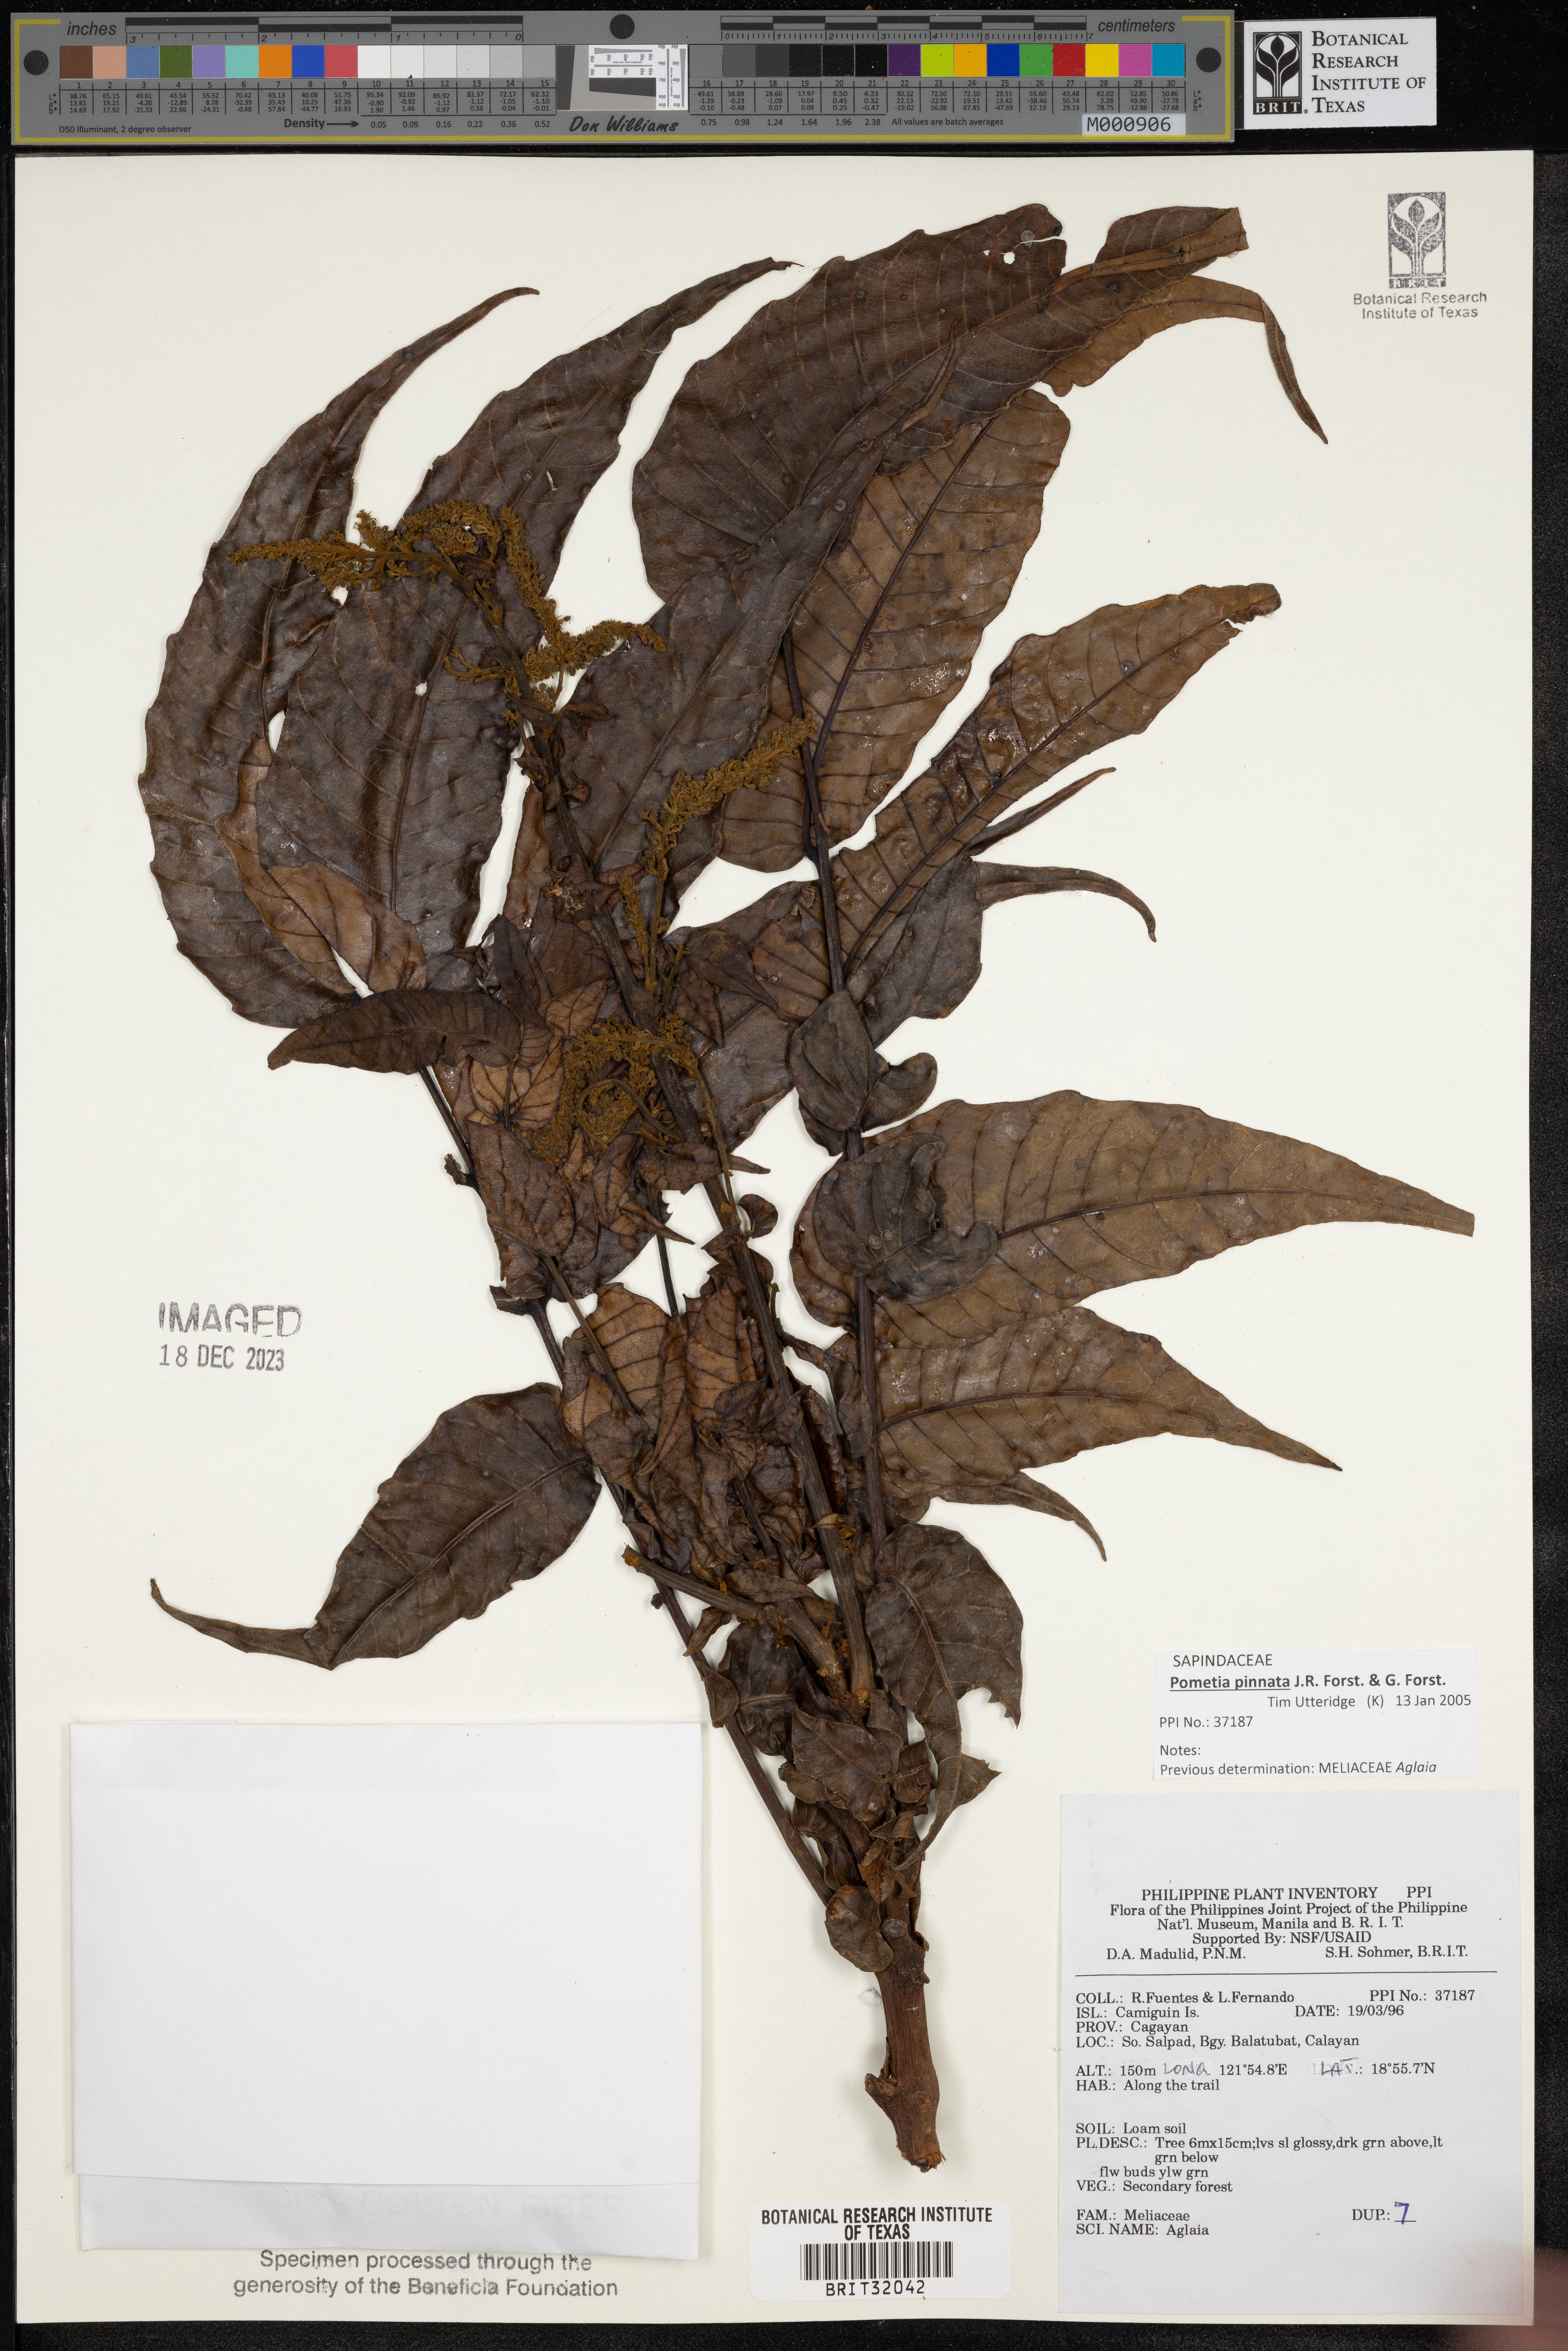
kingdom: Plantae
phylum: Tracheophyta
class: Magnoliopsida
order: Sapindales
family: Meliaceae
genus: Aglaia
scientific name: Aglaia
